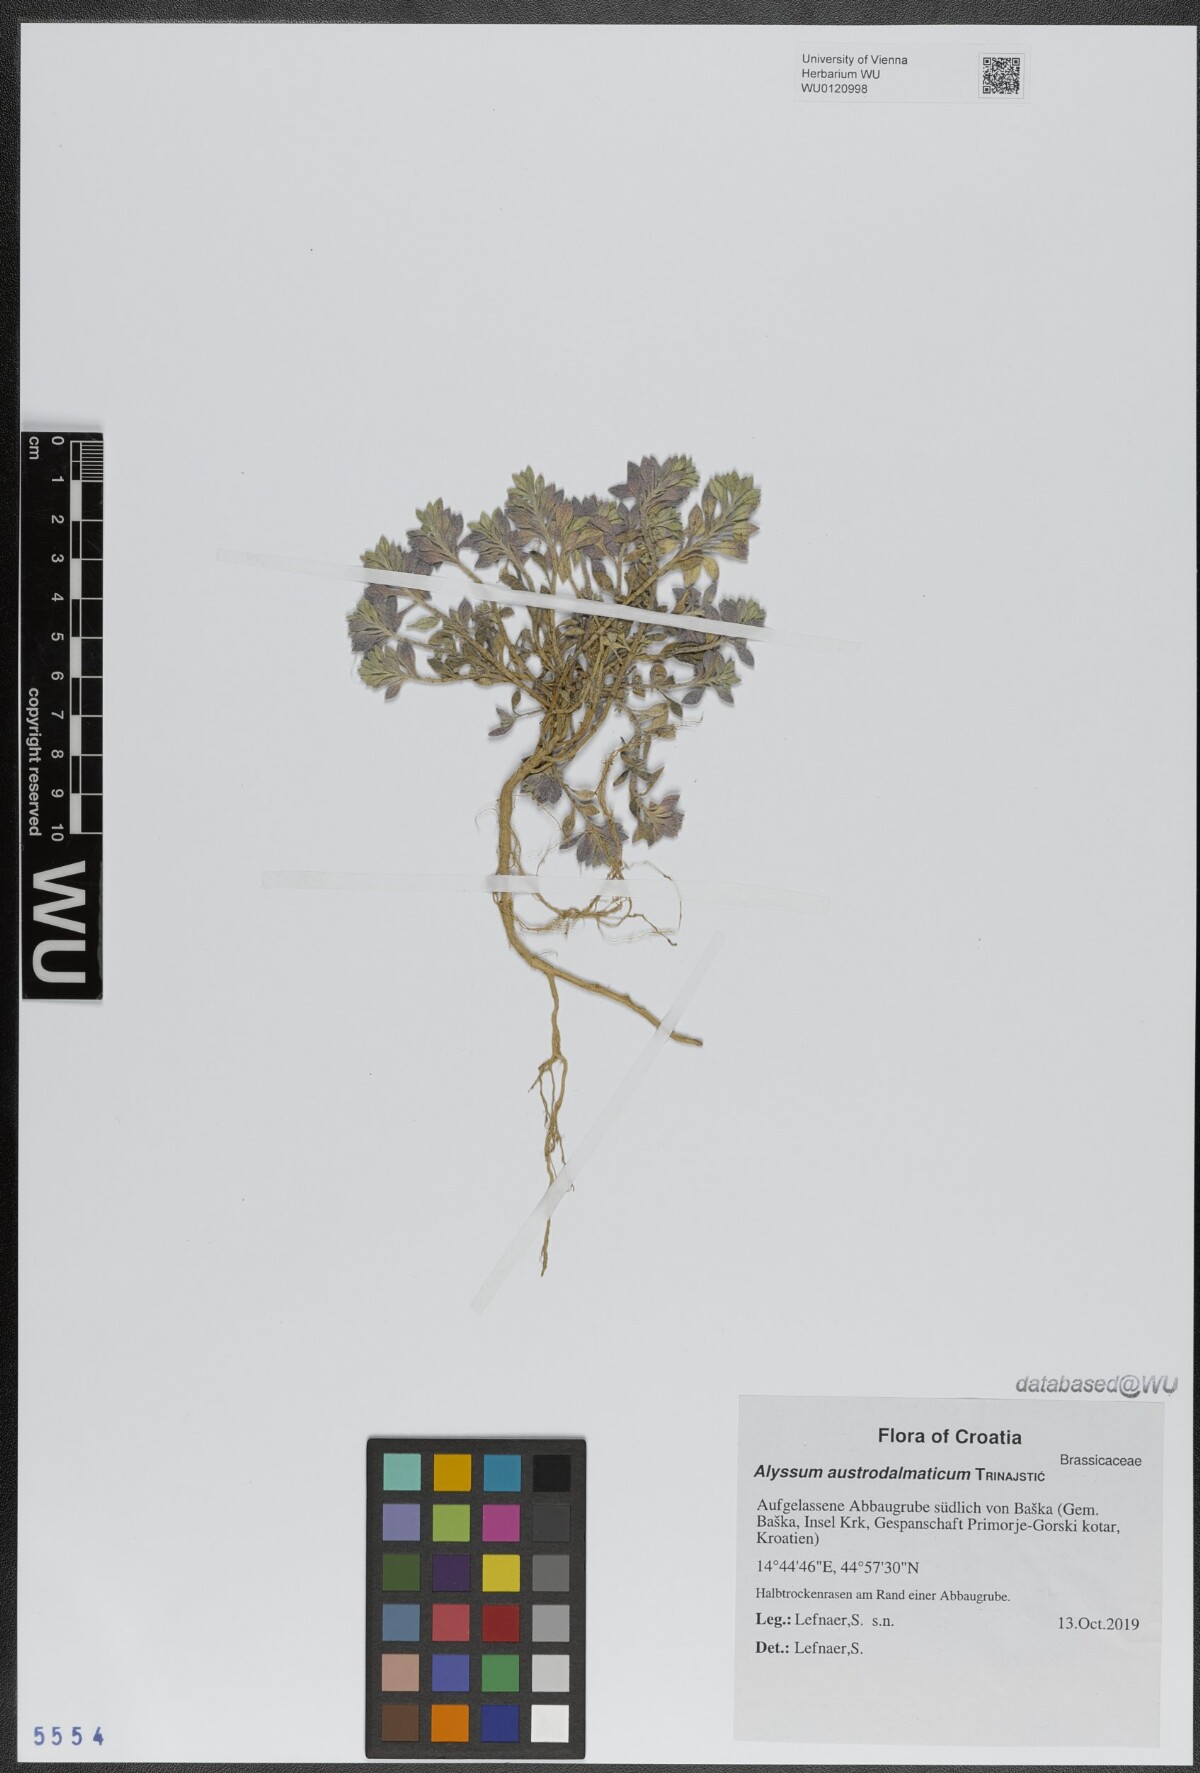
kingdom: Plantae
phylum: Tracheophyta
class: Magnoliopsida
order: Brassicales
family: Brassicaceae
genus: Alyssum
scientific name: Alyssum austrodalmaticum
